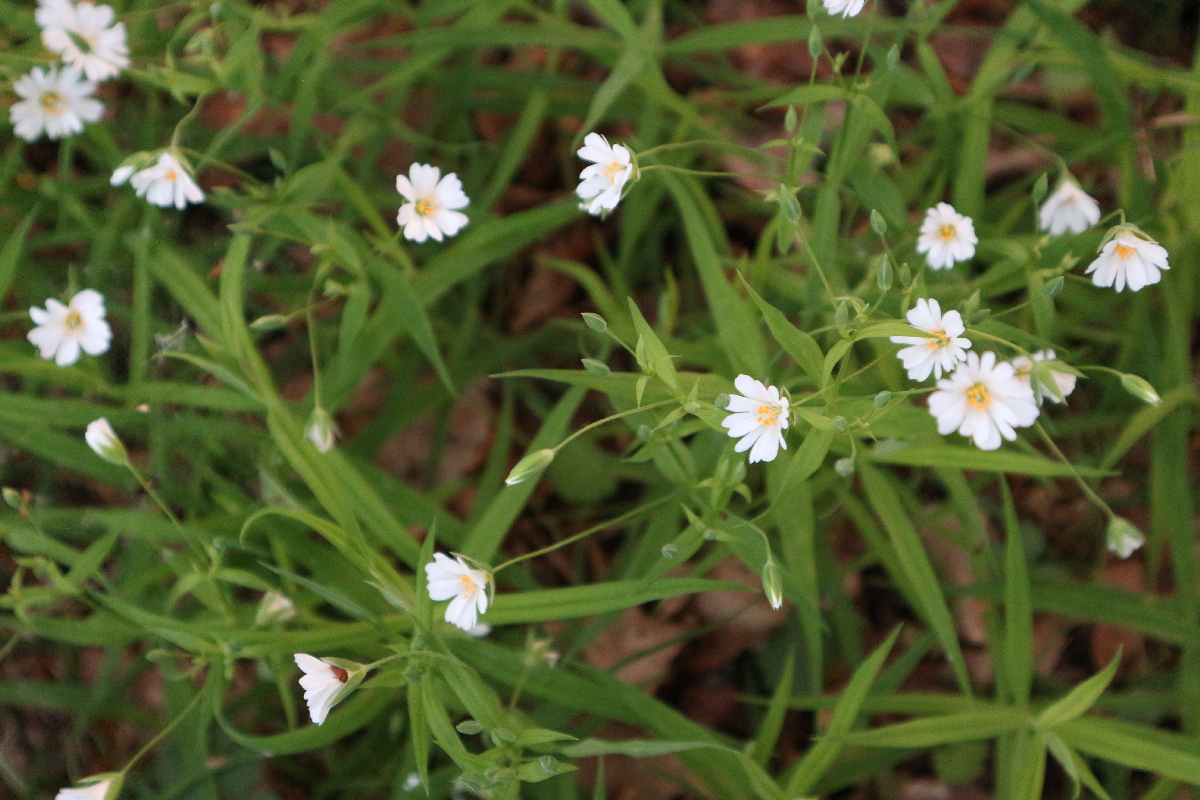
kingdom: Plantae
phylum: Tracheophyta
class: Magnoliopsida
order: Caryophyllales
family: Caryophyllaceae
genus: Rabelera
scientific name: Rabelera holostea
